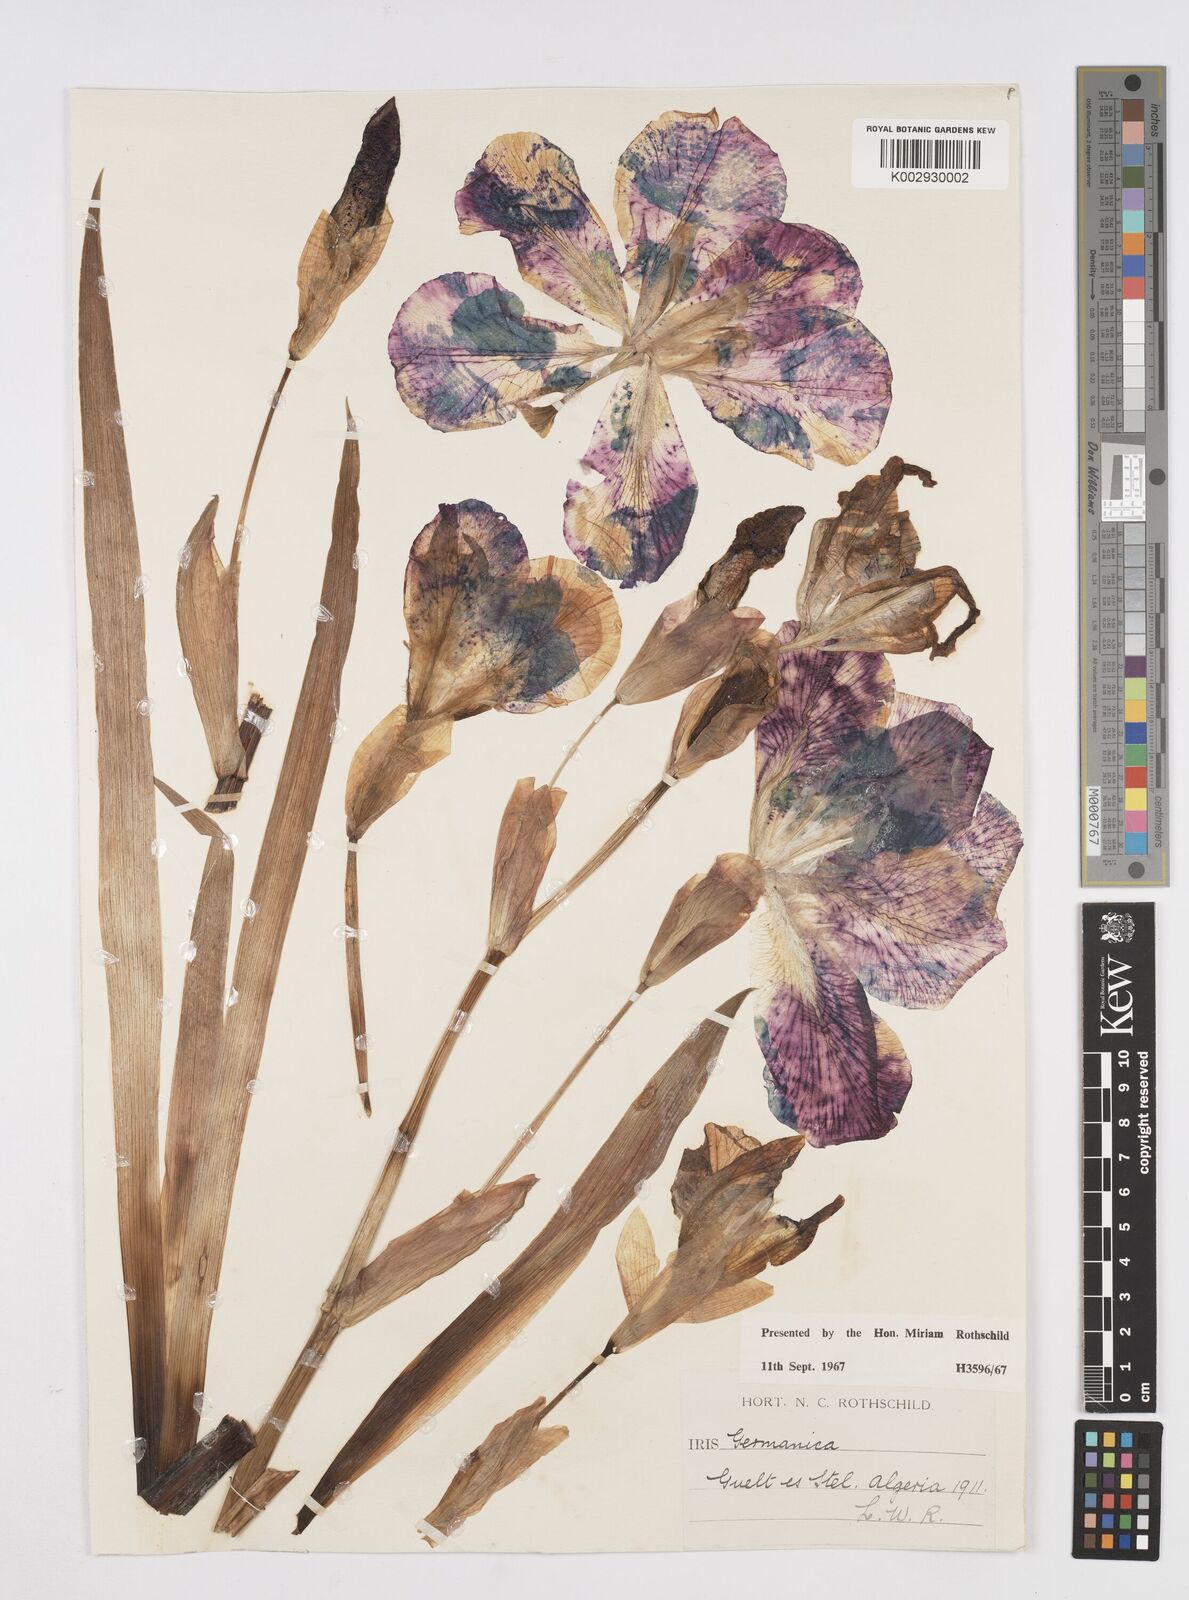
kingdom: Plantae
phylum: Tracheophyta
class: Liliopsida
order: Asparagales
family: Iridaceae
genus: Iris
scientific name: Iris germanica
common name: German iris
